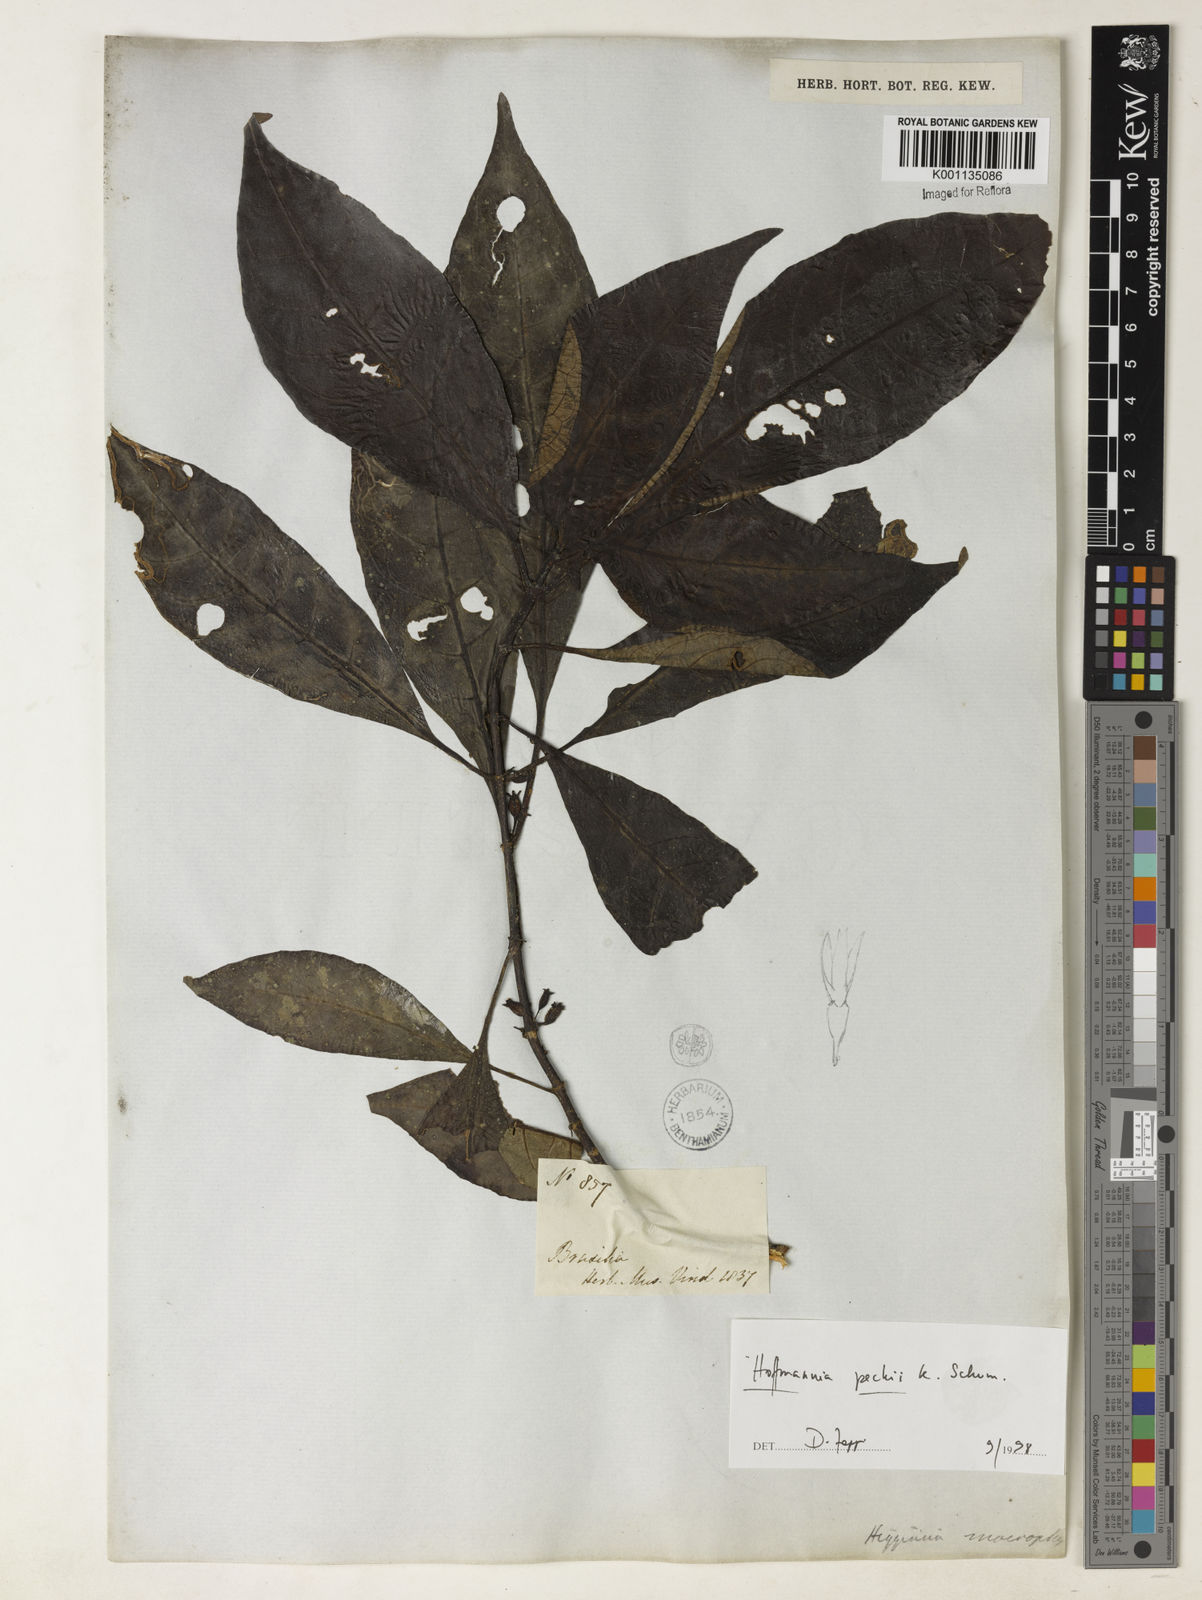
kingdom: Plantae
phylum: Tracheophyta
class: Magnoliopsida
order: Gentianales
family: Rubiaceae
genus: Hoffmannia
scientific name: Hoffmannia peckii
